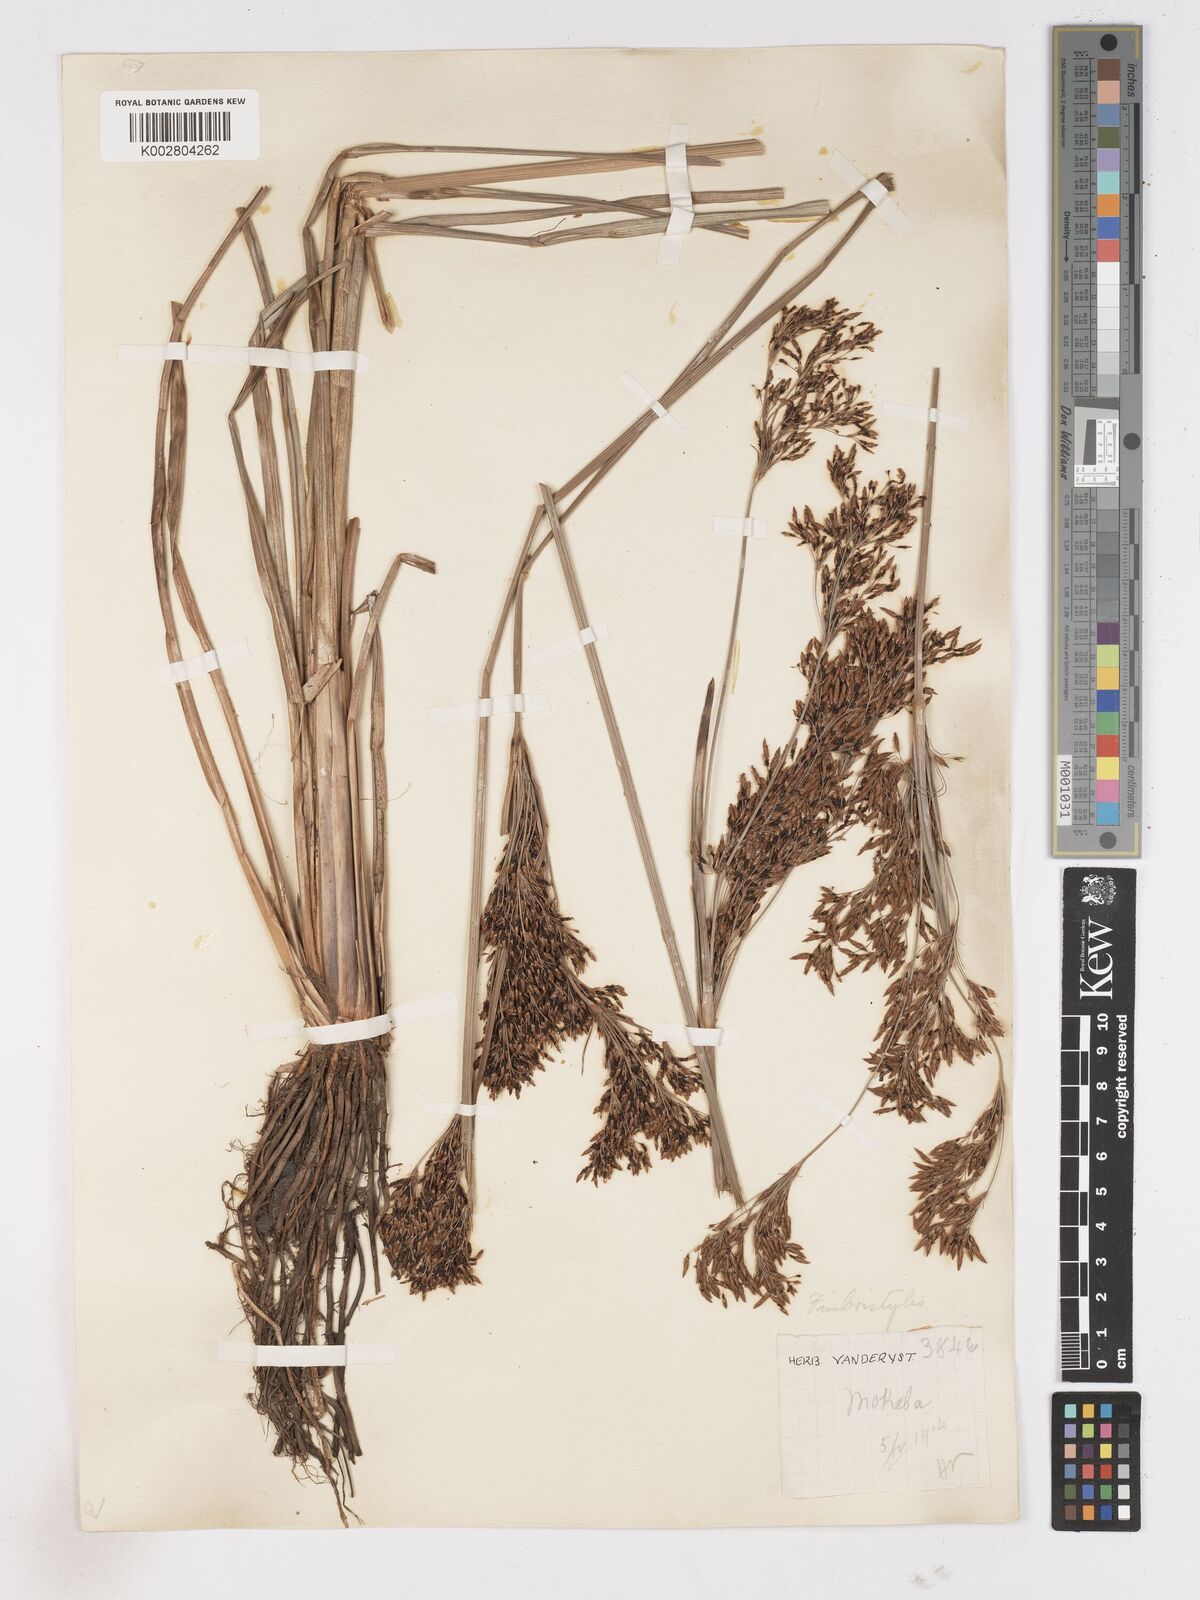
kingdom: Plantae
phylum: Tracheophyta
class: Liliopsida
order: Poales
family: Cyperaceae
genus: Fimbristylis
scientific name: Fimbristylis dura
